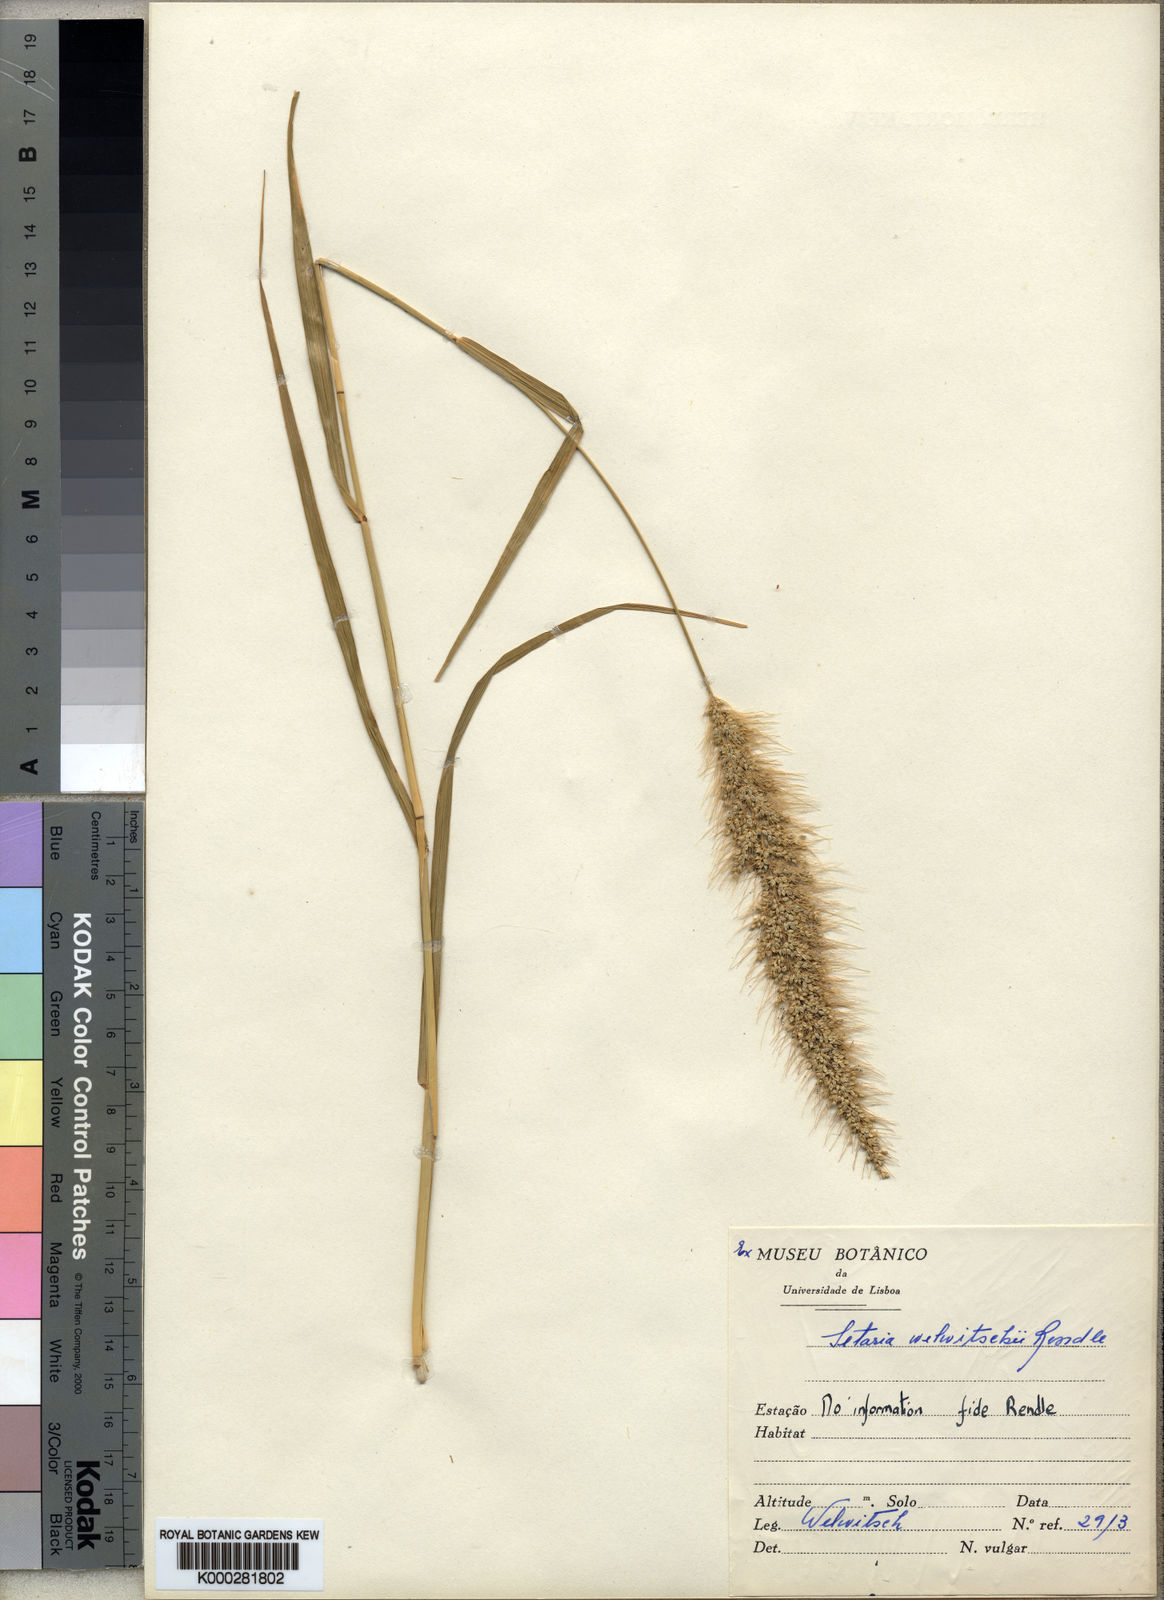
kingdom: Plantae
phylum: Tracheophyta
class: Liliopsida
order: Poales
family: Poaceae
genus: Setaria
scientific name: Setaria welwitschii
